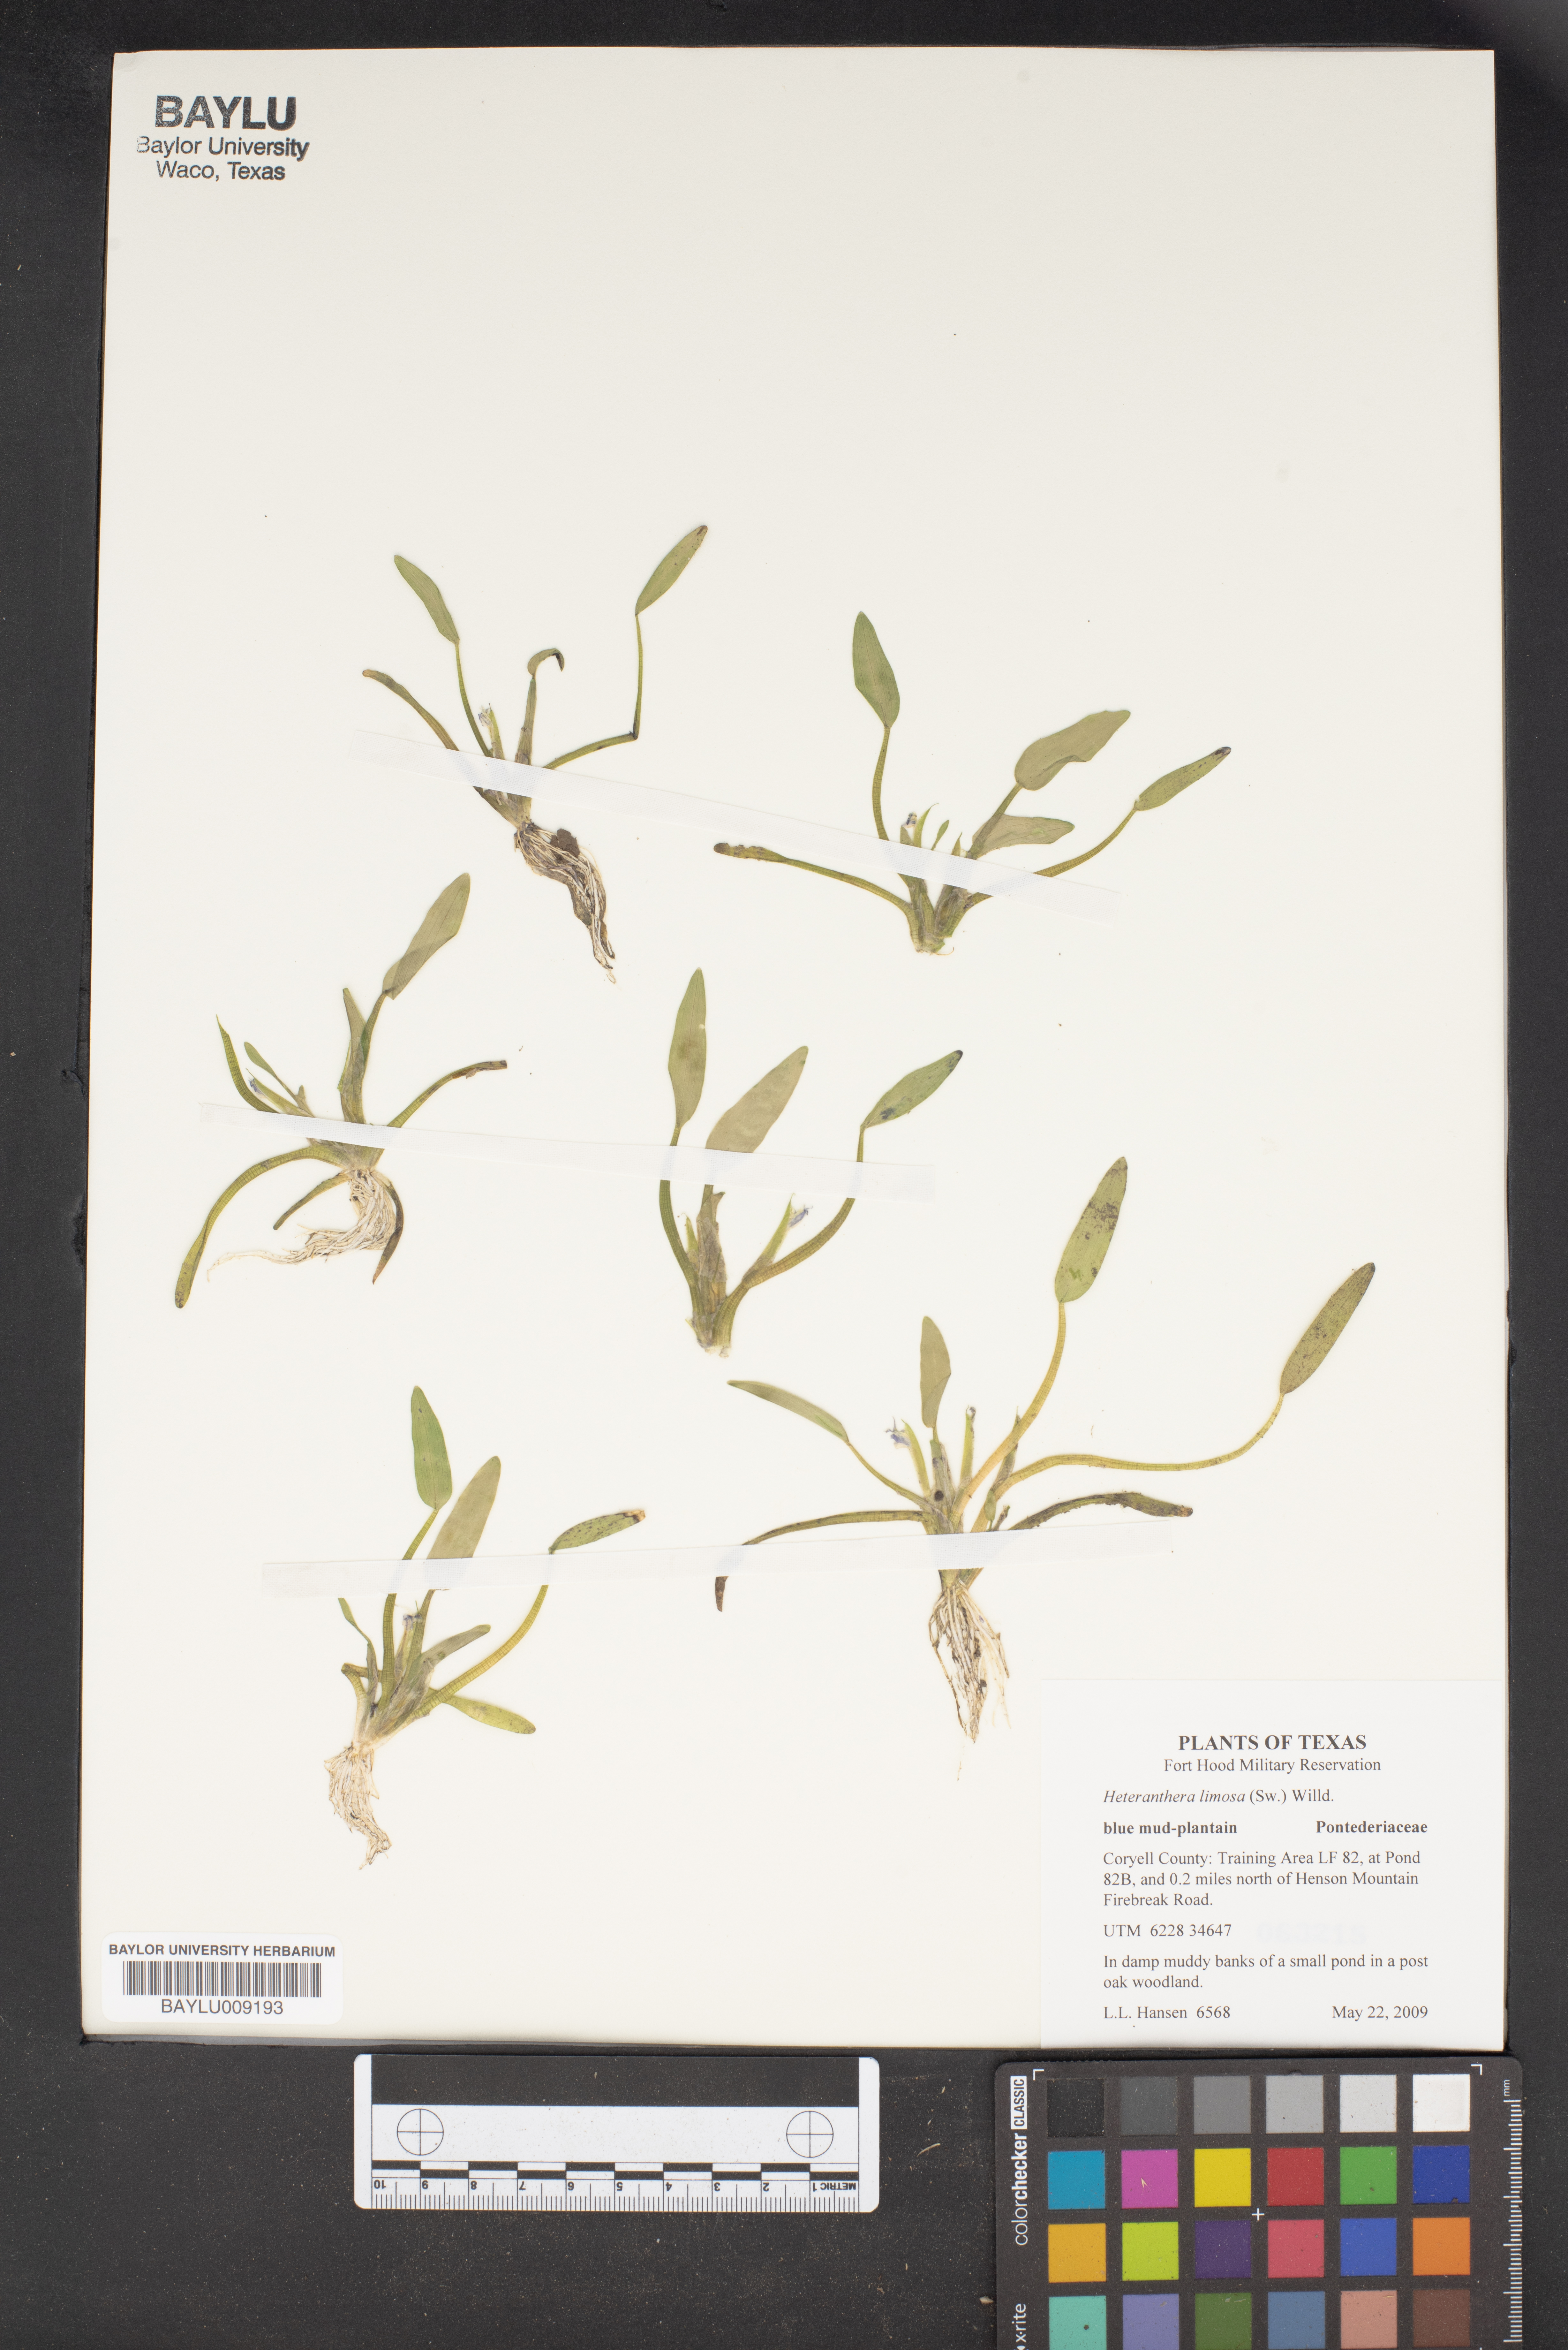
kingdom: Plantae
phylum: Tracheophyta
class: Liliopsida
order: Commelinales
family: Pontederiaceae
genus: Heteranthera
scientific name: Heteranthera limosa
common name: Blue mud-plantain
